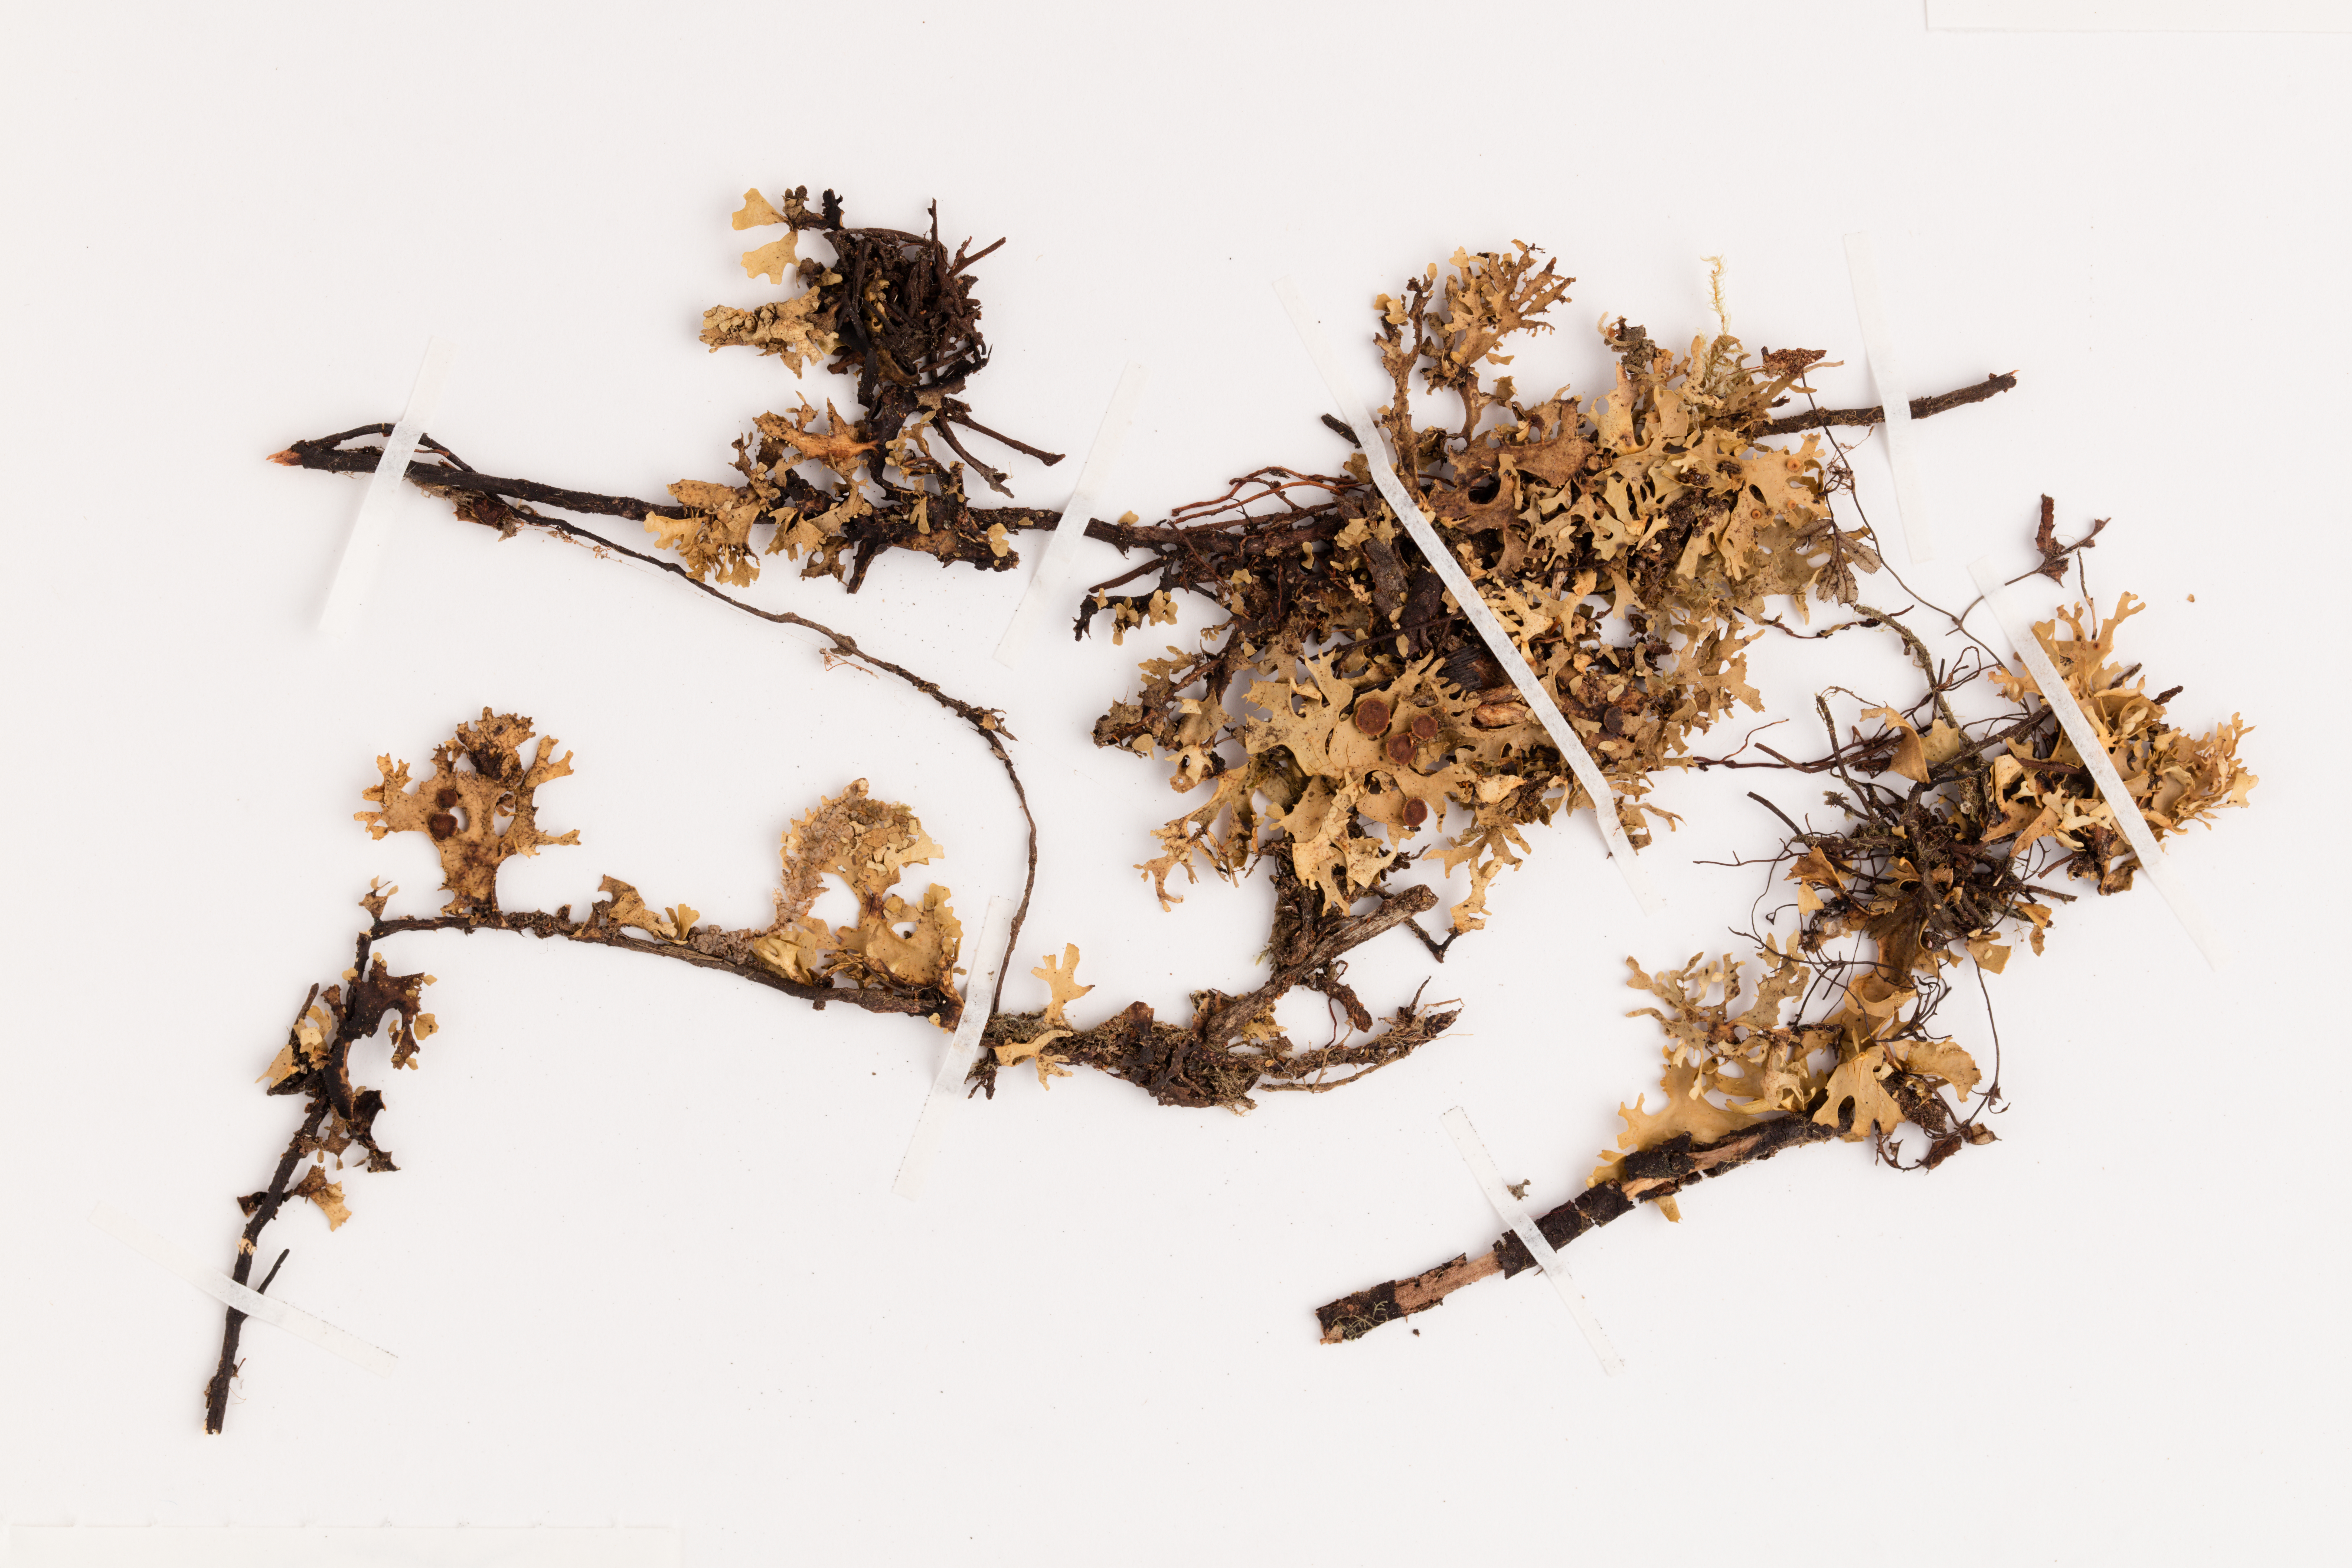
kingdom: Fungi
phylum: Ascomycota
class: Lecanoromycetes
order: Peltigerales
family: Lobariaceae
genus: Sticta
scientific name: Sticta
